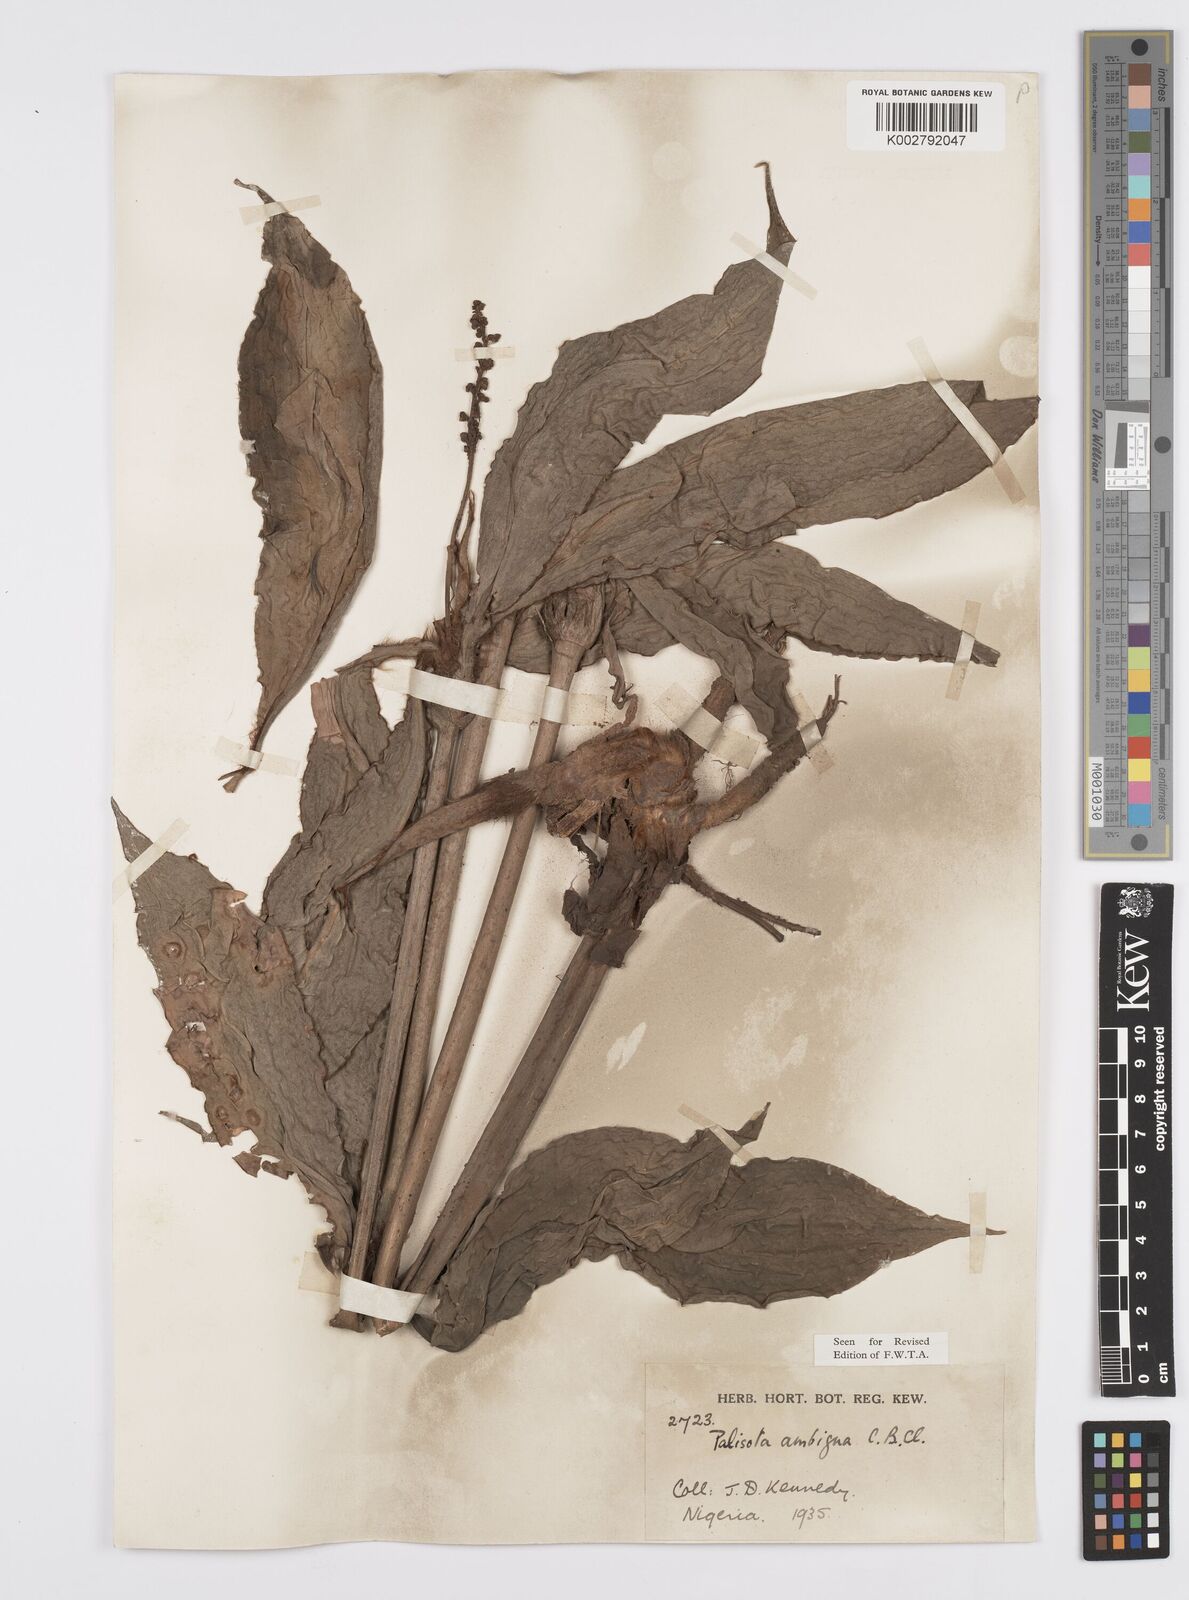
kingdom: Plantae
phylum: Tracheophyta
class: Liliopsida
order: Commelinales
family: Commelinaceae
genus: Palisota
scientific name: Palisota ambigua
